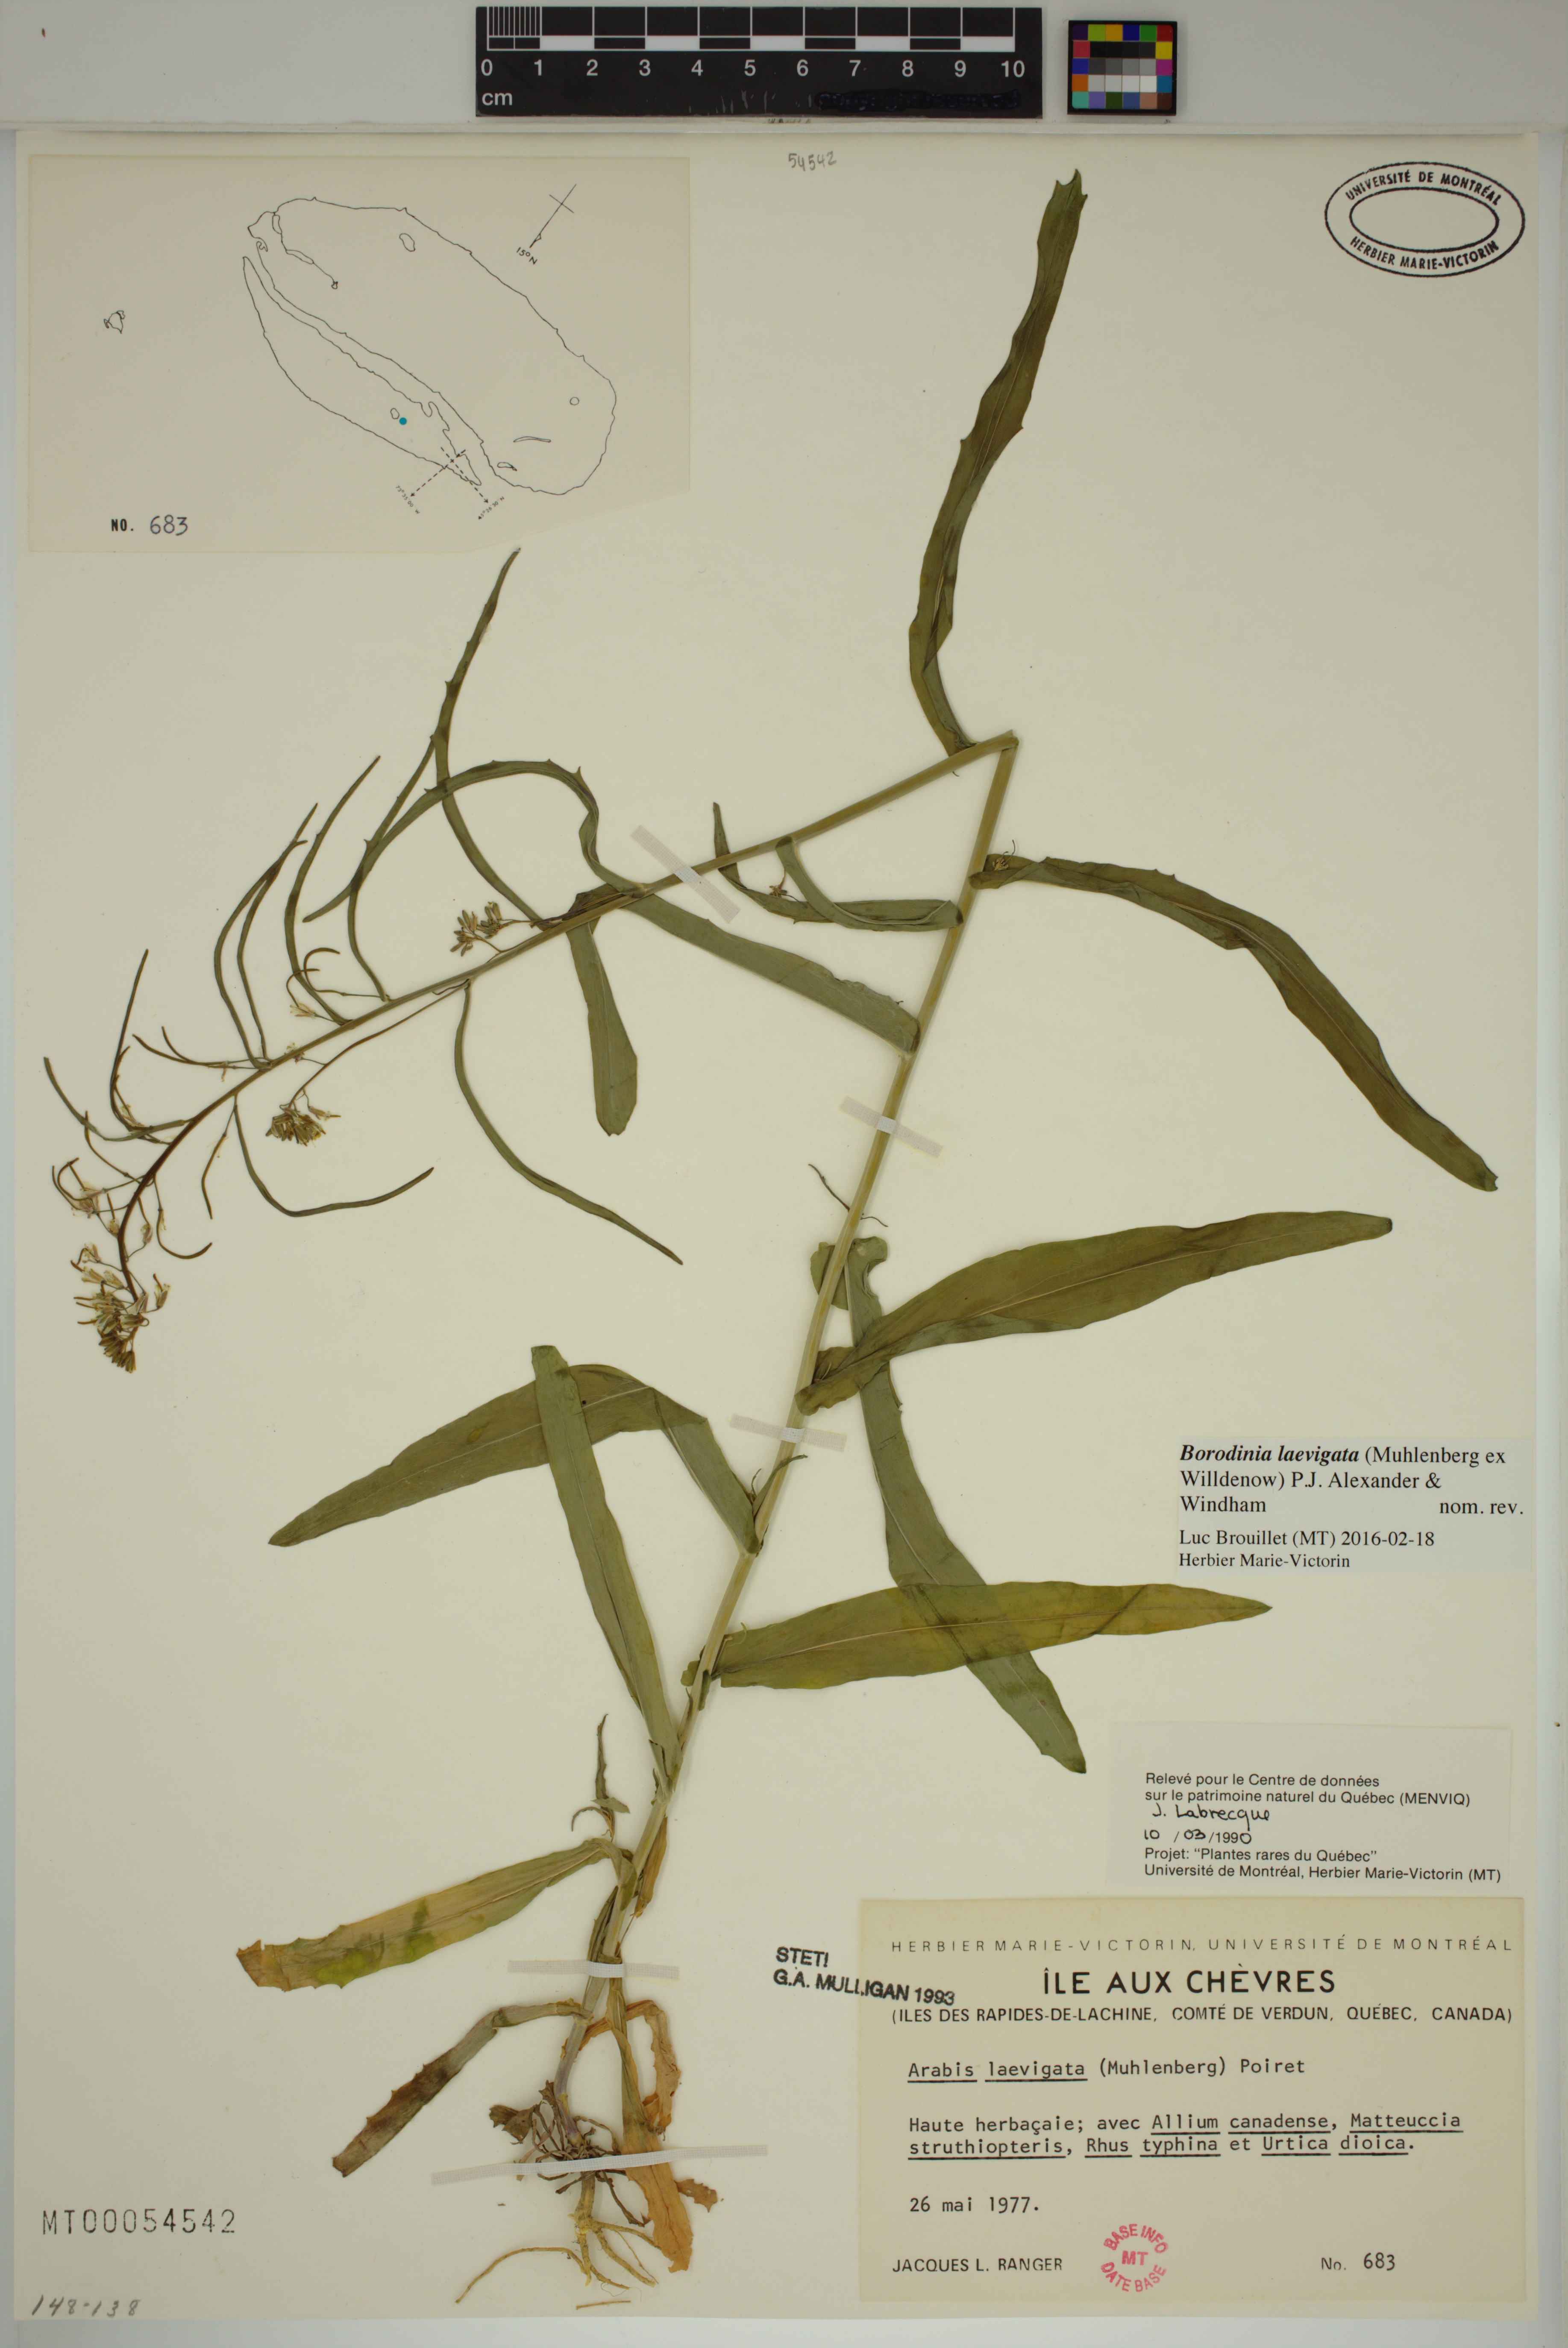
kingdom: Plantae
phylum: Tracheophyta
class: Magnoliopsida
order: Brassicales
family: Brassicaceae
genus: Borodinia
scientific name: Borodinia laevigata
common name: Smooth rockcress
